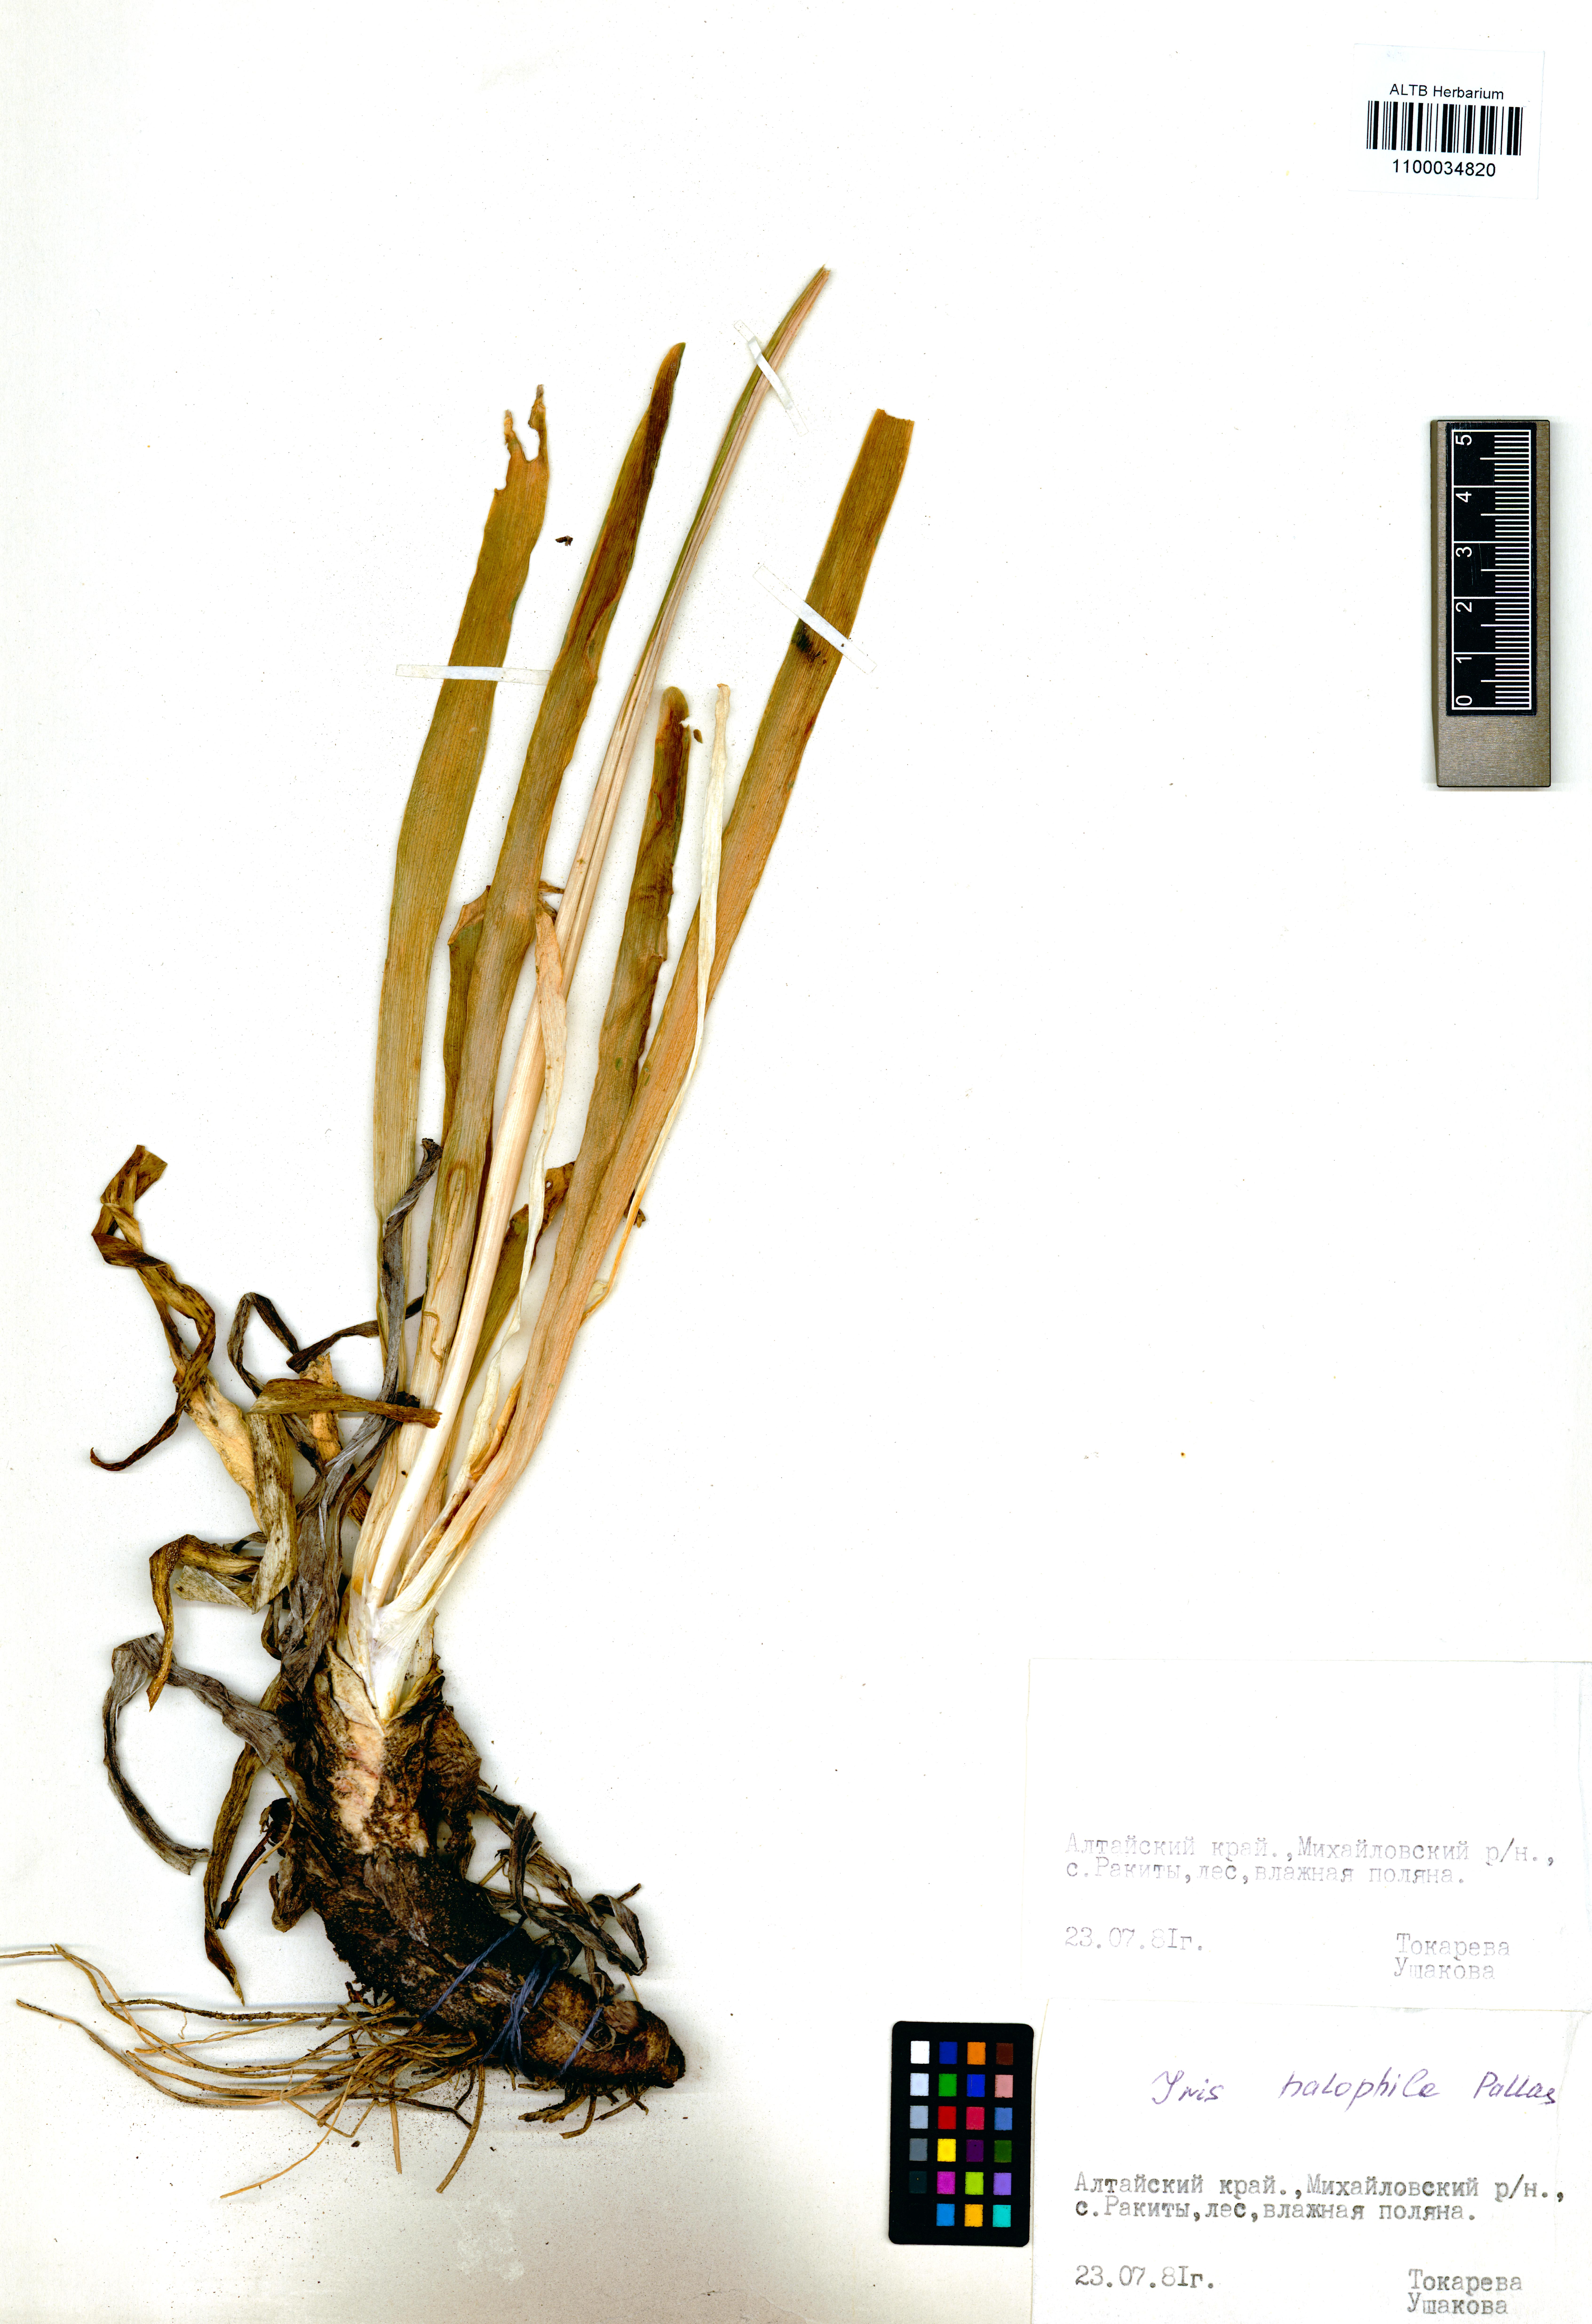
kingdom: Plantae
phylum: Tracheophyta
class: Liliopsida
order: Asparagales
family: Iridaceae
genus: Iris
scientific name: Iris halophila
